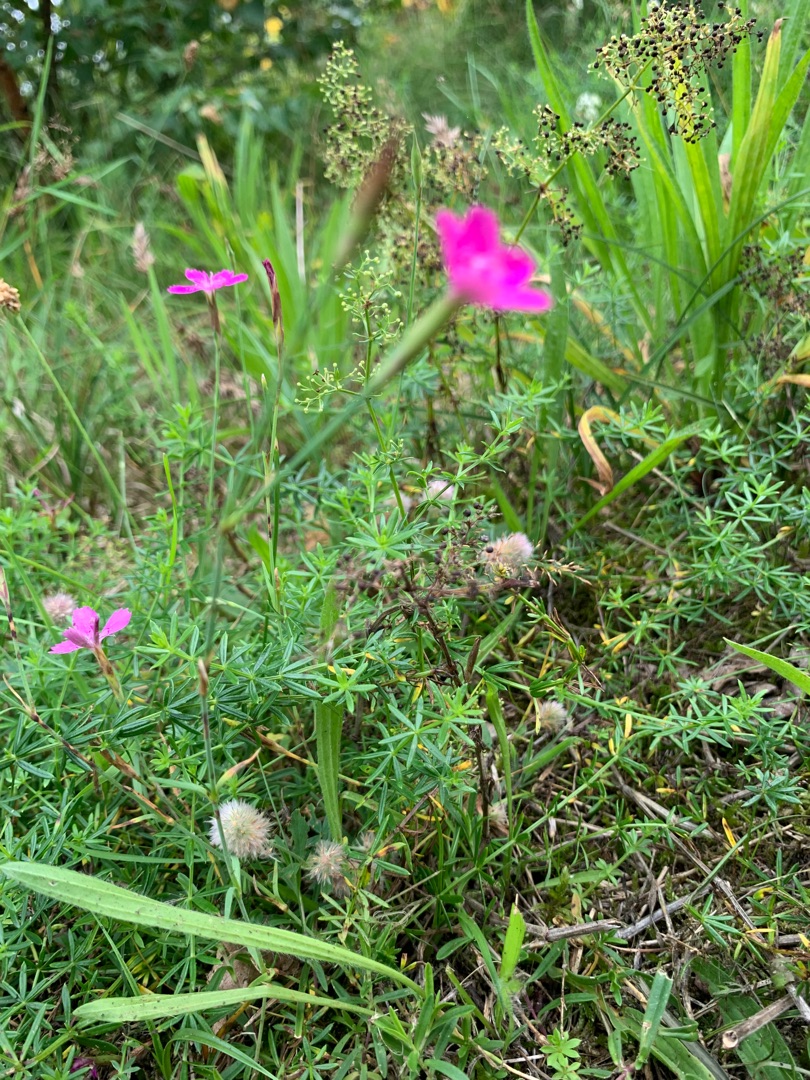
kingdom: Plantae
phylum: Tracheophyta
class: Magnoliopsida
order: Caryophyllales
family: Caryophyllaceae
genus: Dianthus
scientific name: Dianthus deltoides
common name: Bakke-nellike
